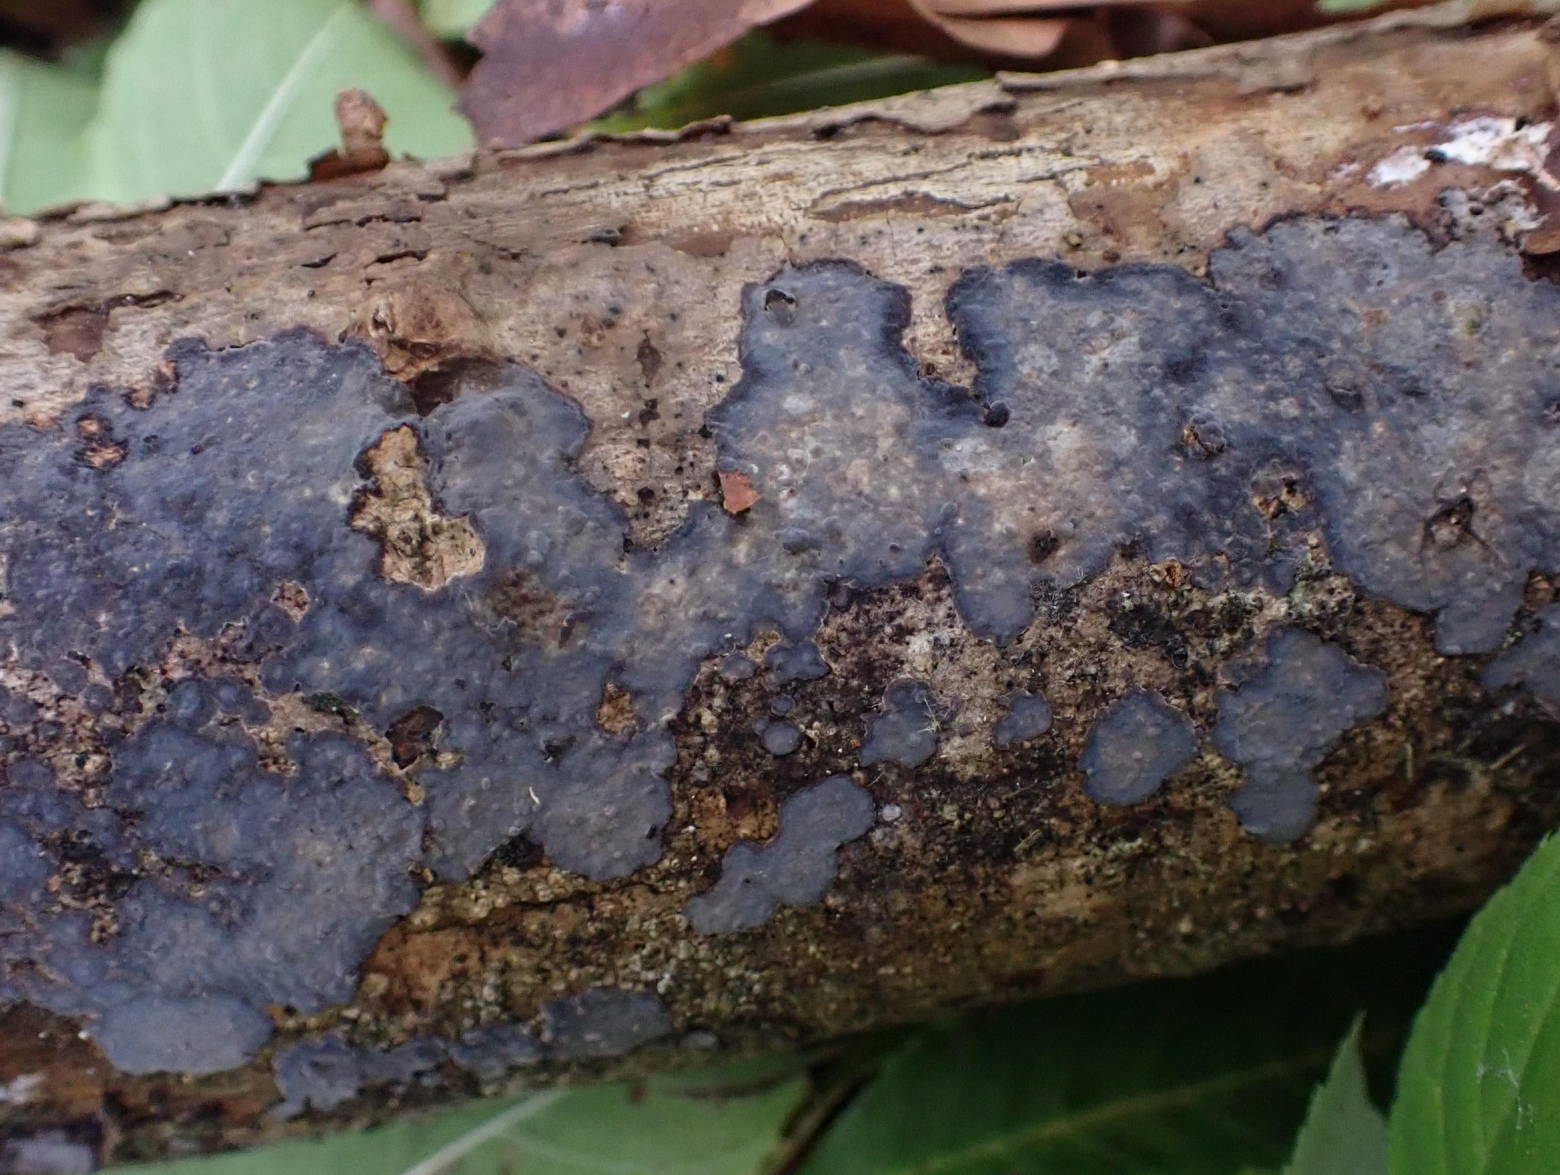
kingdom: Fungi
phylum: Basidiomycota
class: Agaricomycetes
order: Russulales
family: Peniophoraceae
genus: Peniophora
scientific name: Peniophora limitata
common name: mørkrandet voksskind
